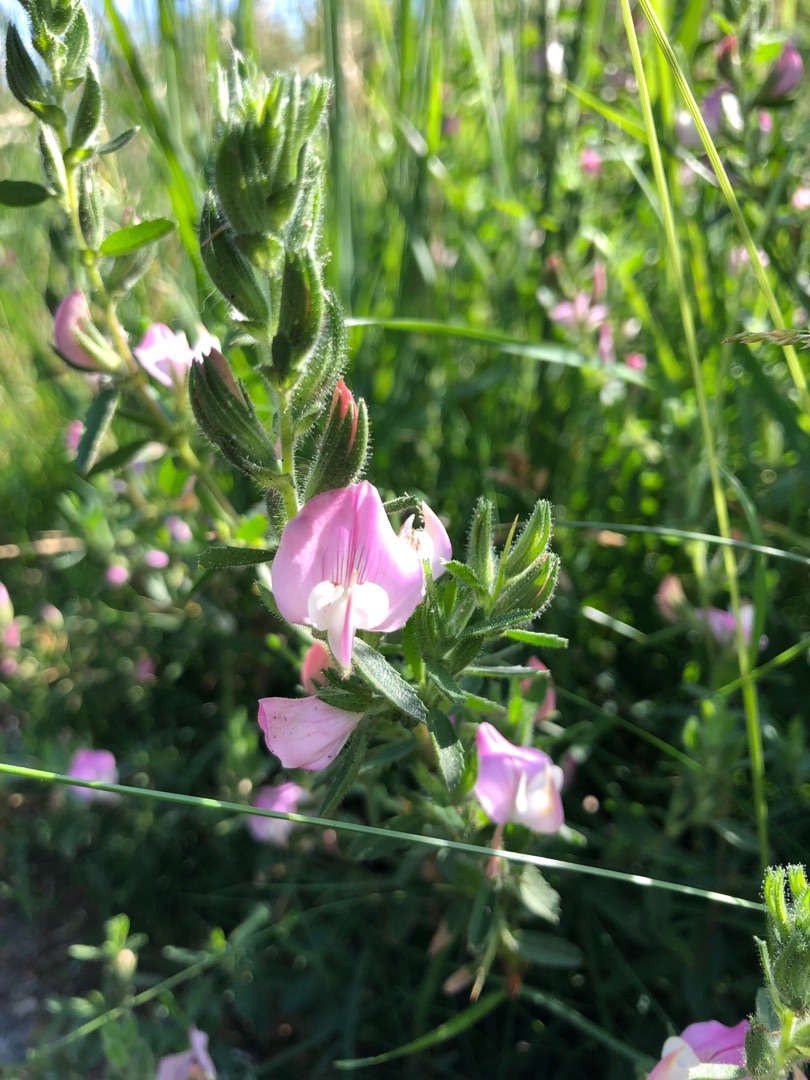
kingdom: Plantae
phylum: Tracheophyta
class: Magnoliopsida
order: Fabales
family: Fabaceae
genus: Ononis
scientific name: Ononis spinosa
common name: Krageklo
